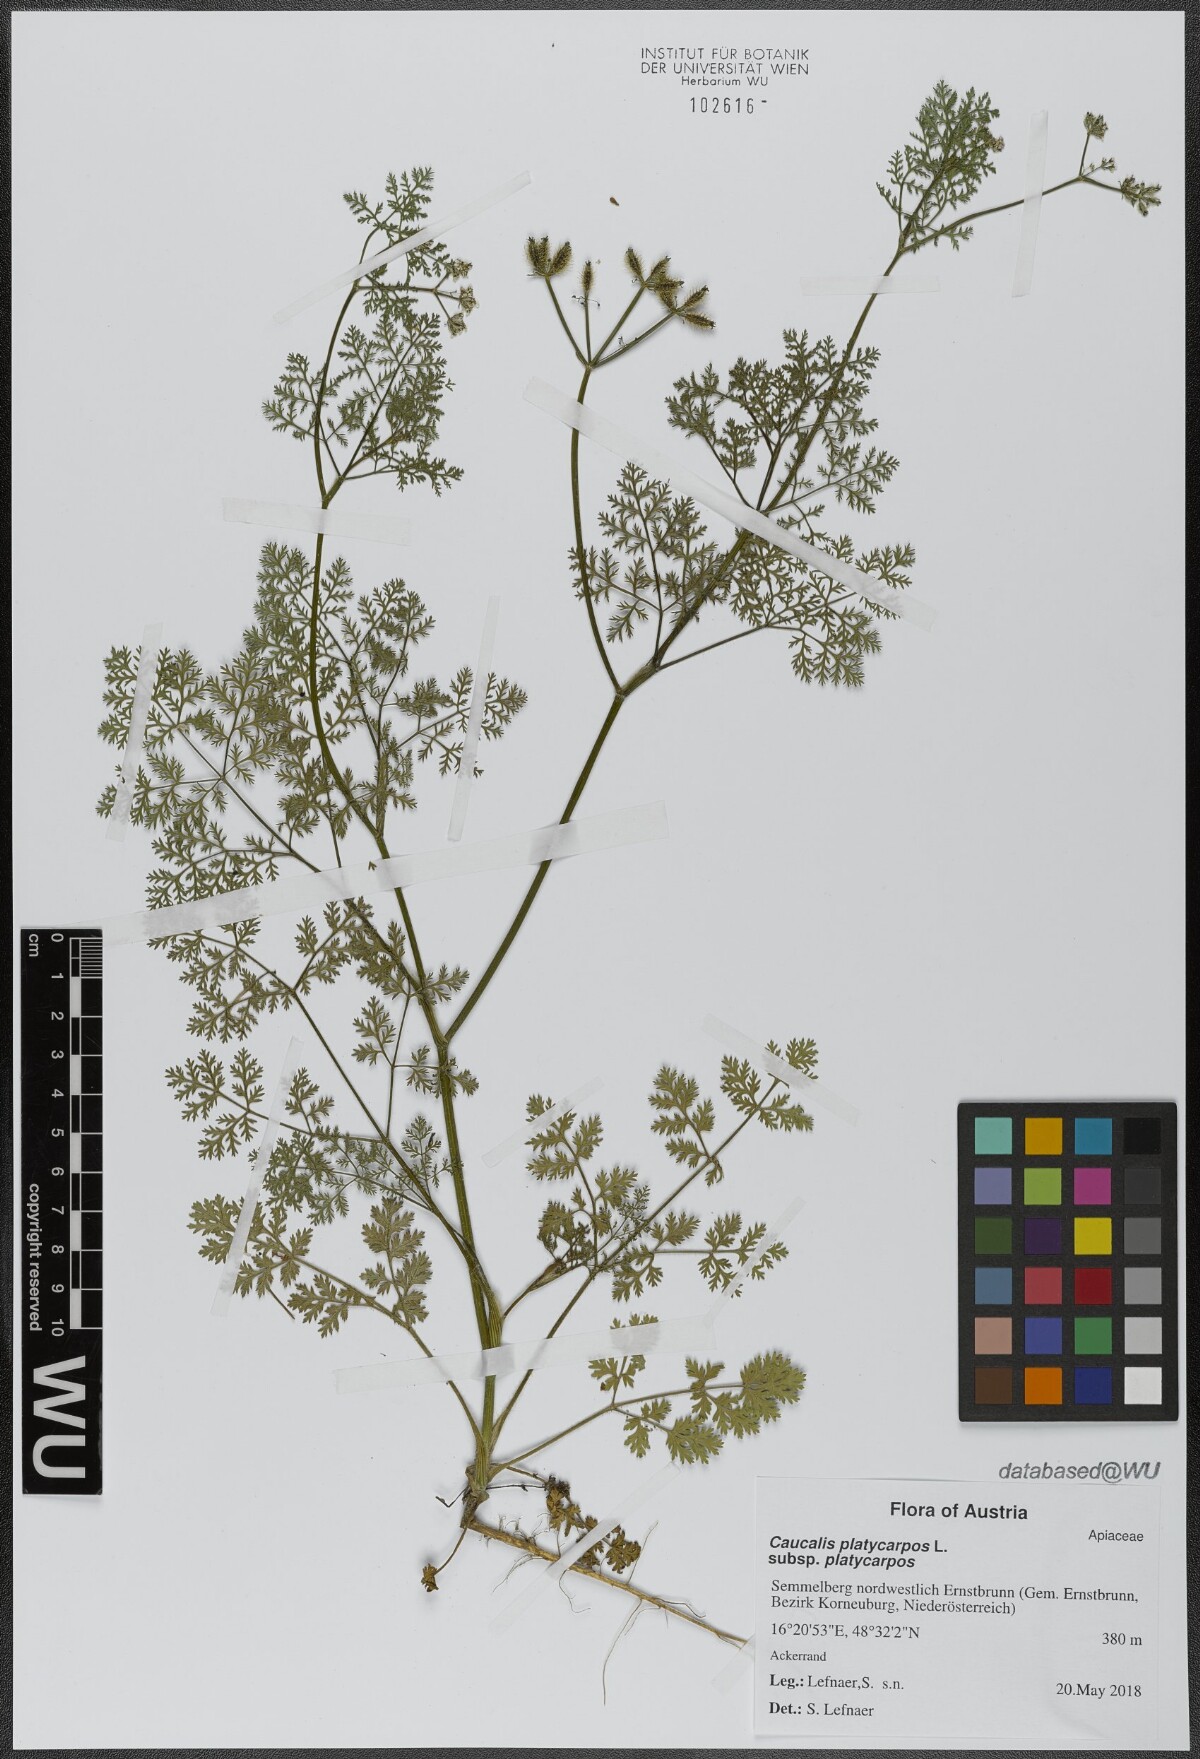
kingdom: Plantae
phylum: Tracheophyta
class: Magnoliopsida
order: Apiales
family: Apiaceae
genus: Caucalis
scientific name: Caucalis platycarpos
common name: Small bur-parsley
